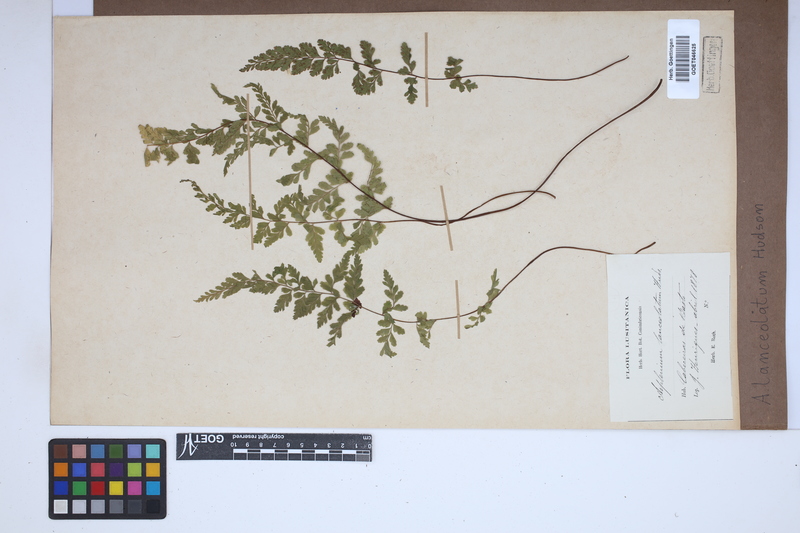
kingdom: Plantae
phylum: Tracheophyta
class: Polypodiopsida
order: Polypodiales
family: Aspleniaceae
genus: Asplenium
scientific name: Asplenium obovatum
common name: Lanceolate spleenwort
